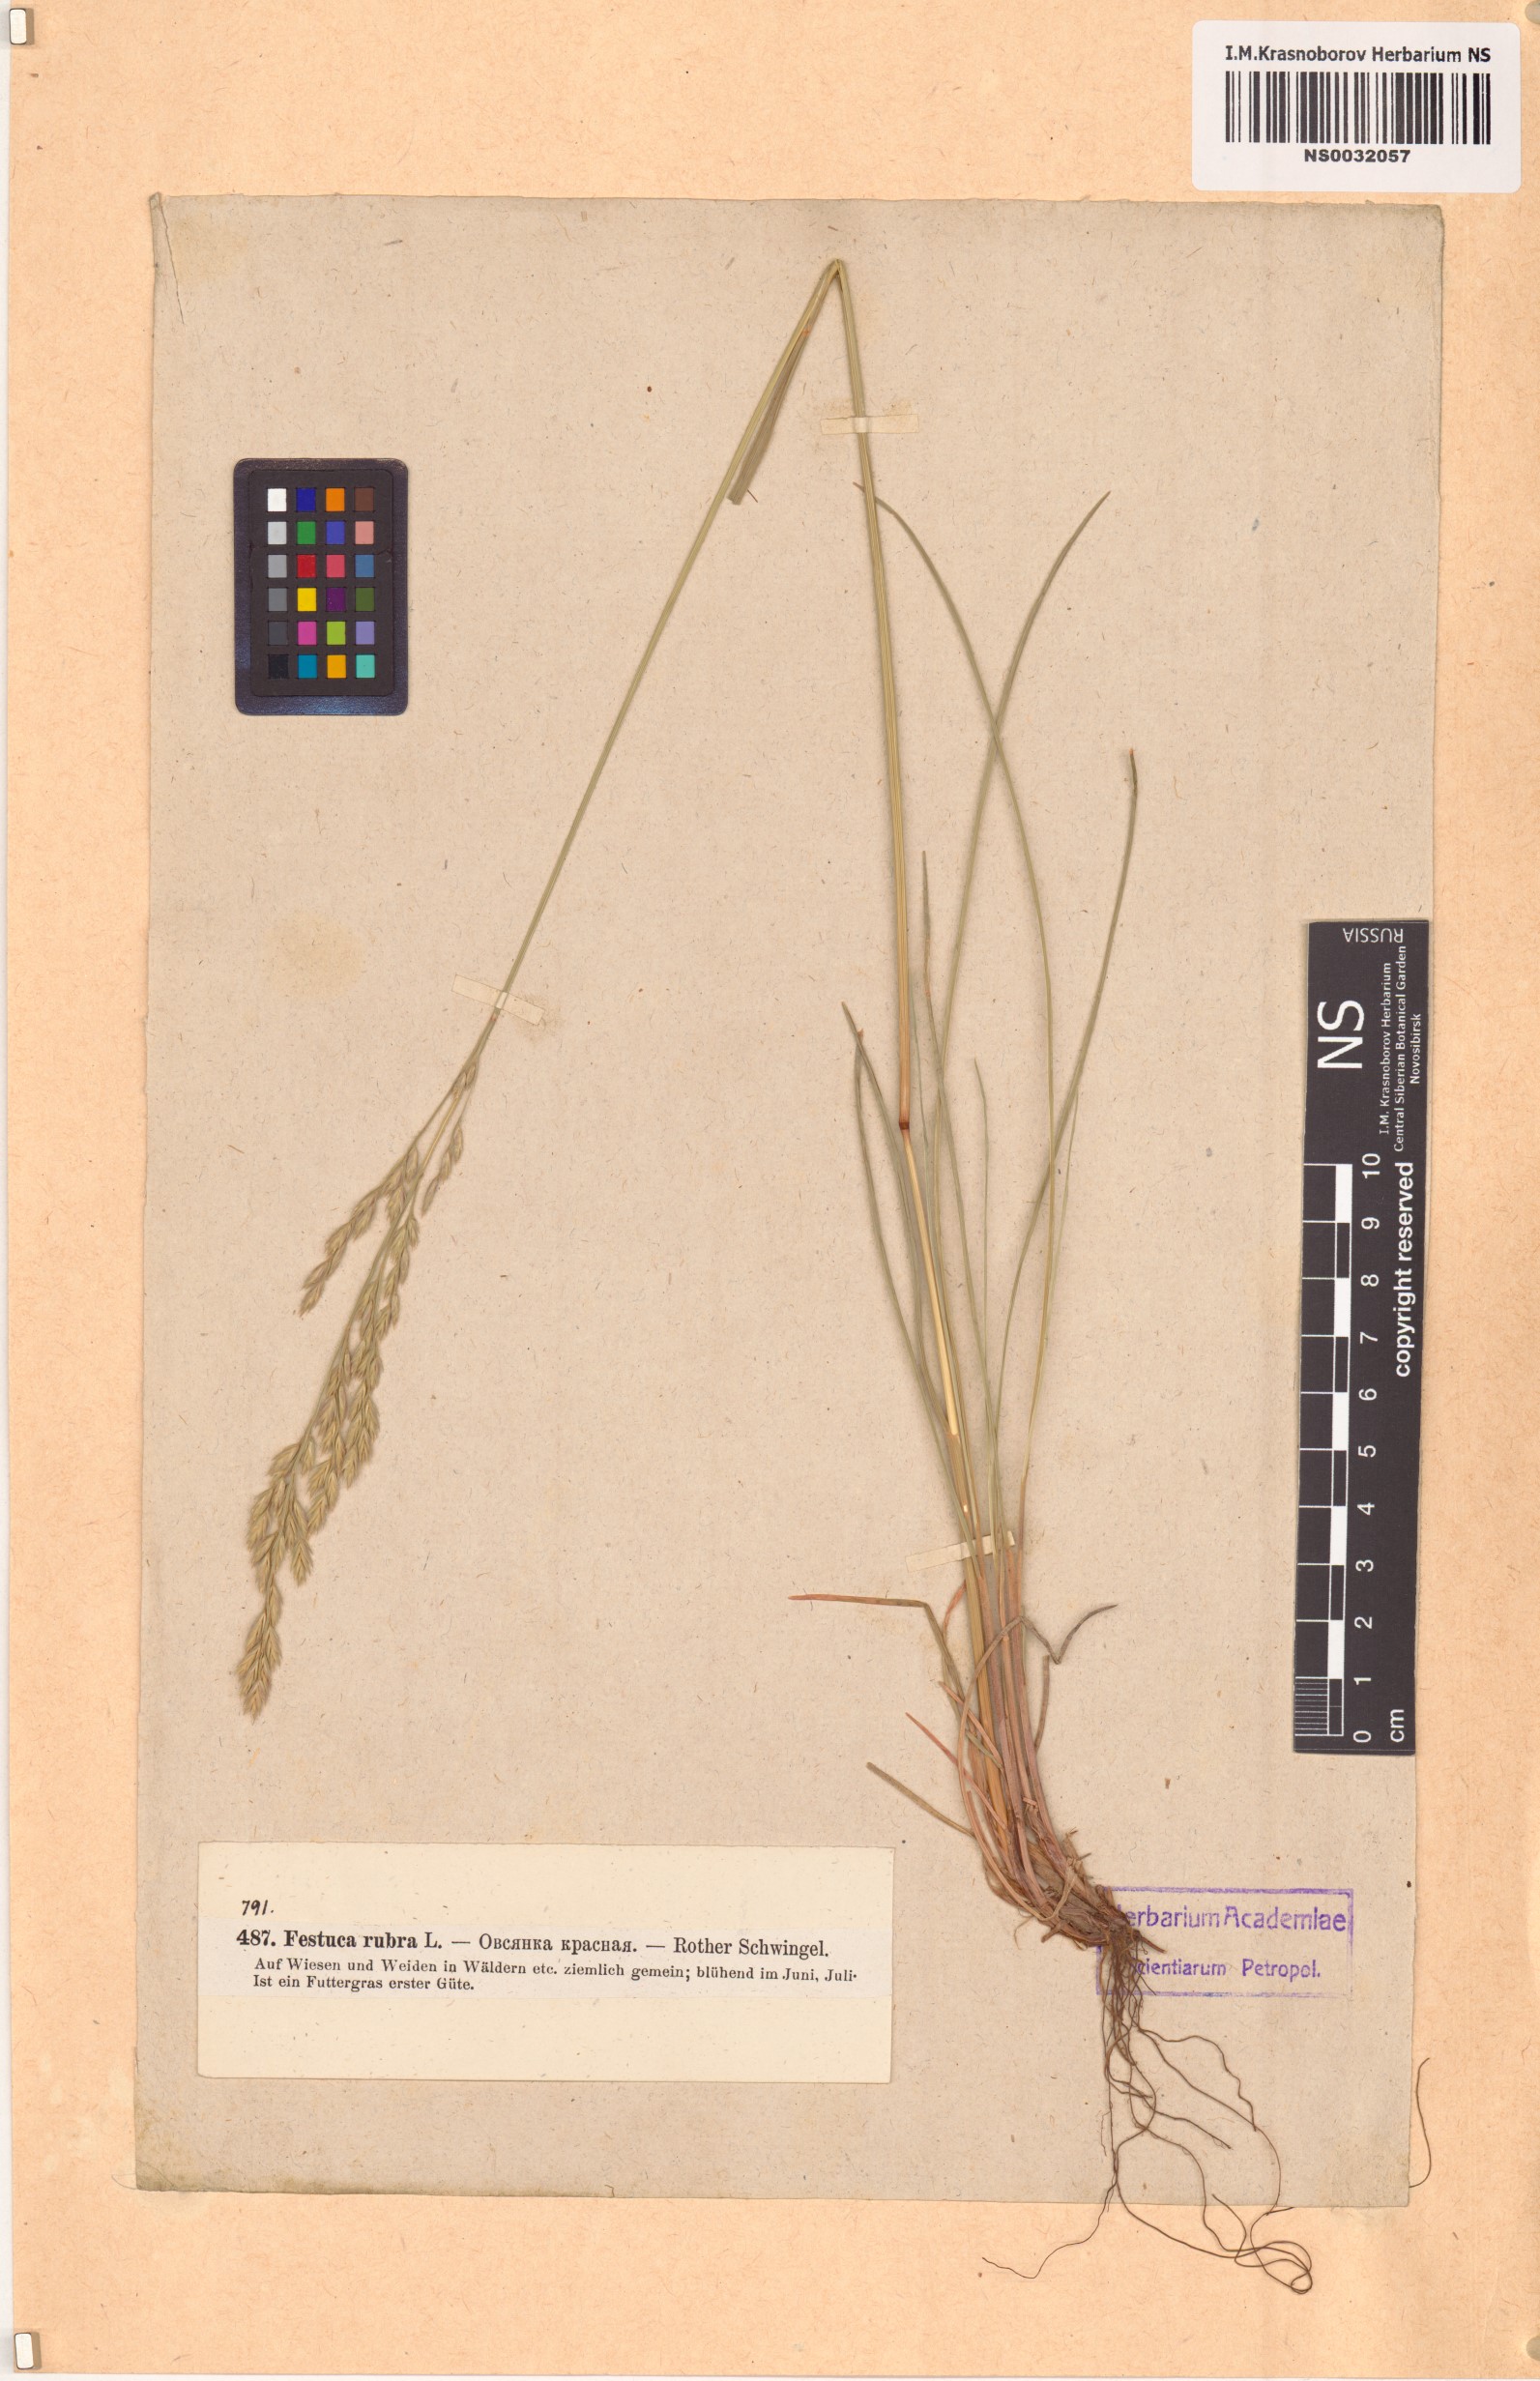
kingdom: Plantae
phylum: Tracheophyta
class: Liliopsida
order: Poales
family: Poaceae
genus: Festuca
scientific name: Festuca rubra
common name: Red fescue
